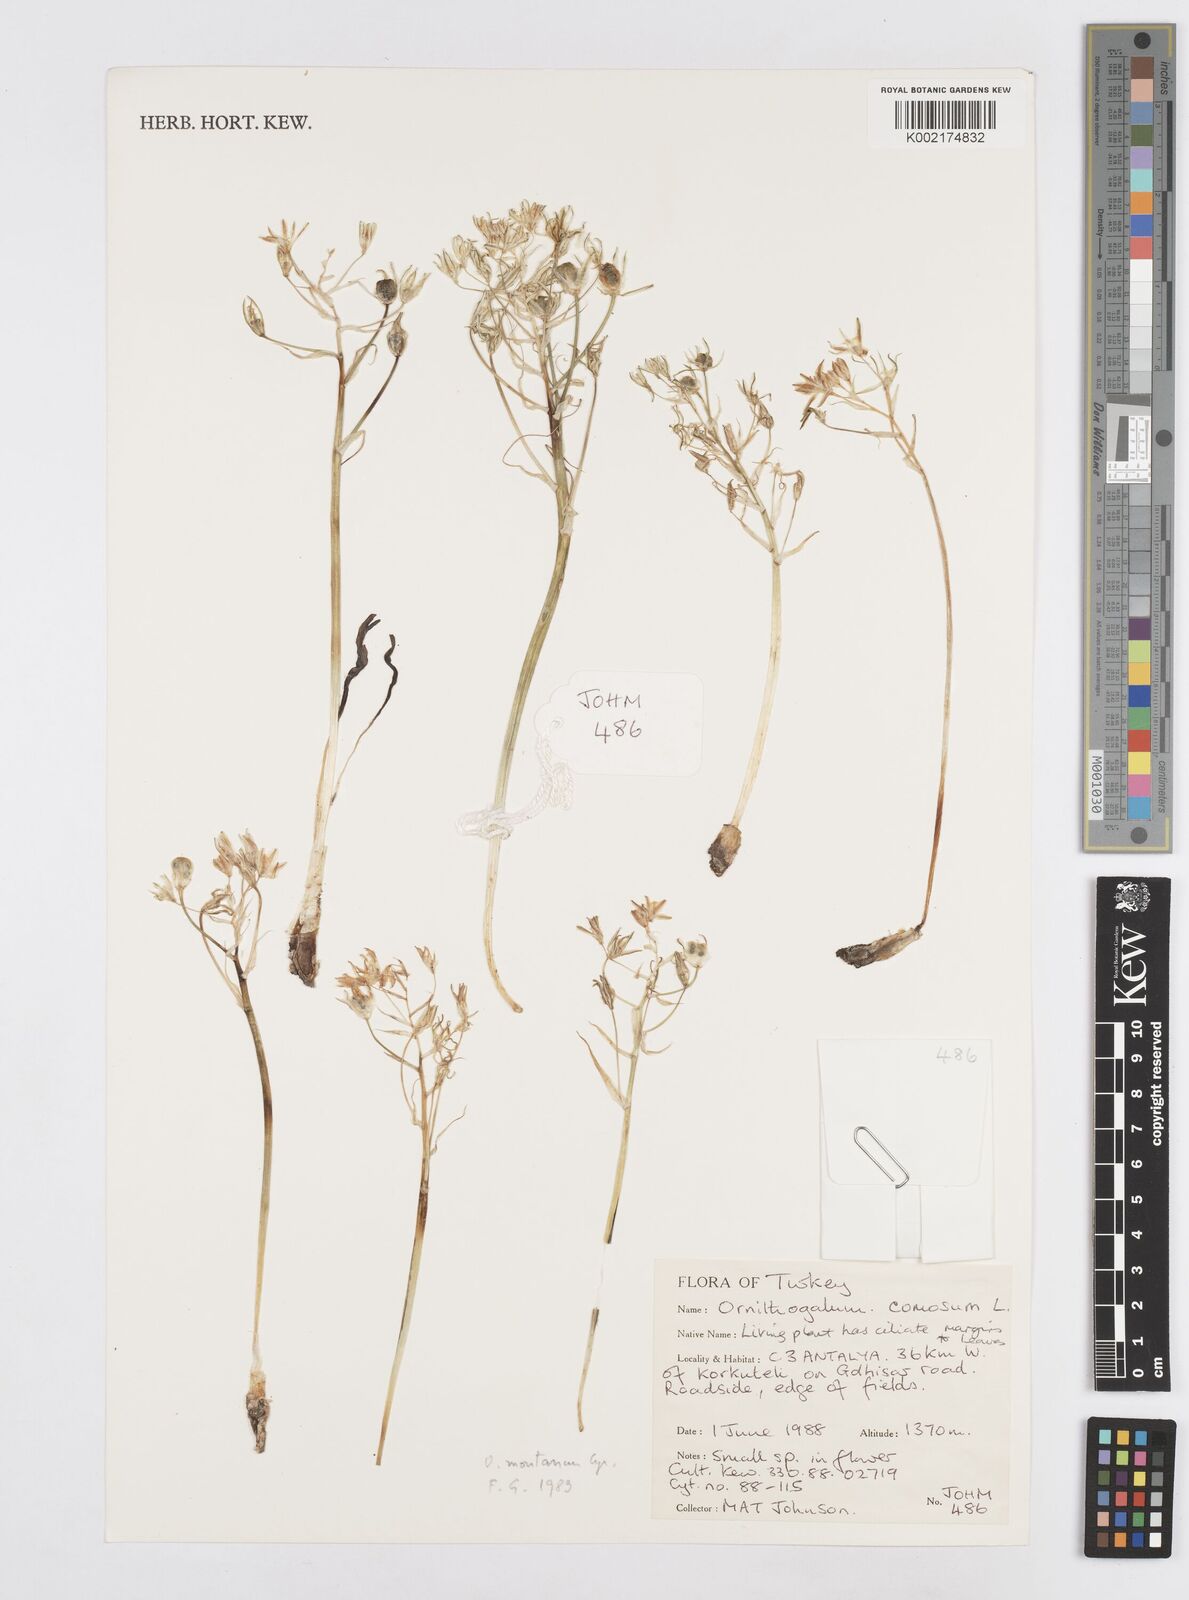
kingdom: Plantae
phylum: Tracheophyta
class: Liliopsida
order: Asparagales
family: Asparagaceae
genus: Ornithogalum
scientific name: Ornithogalum comosum
